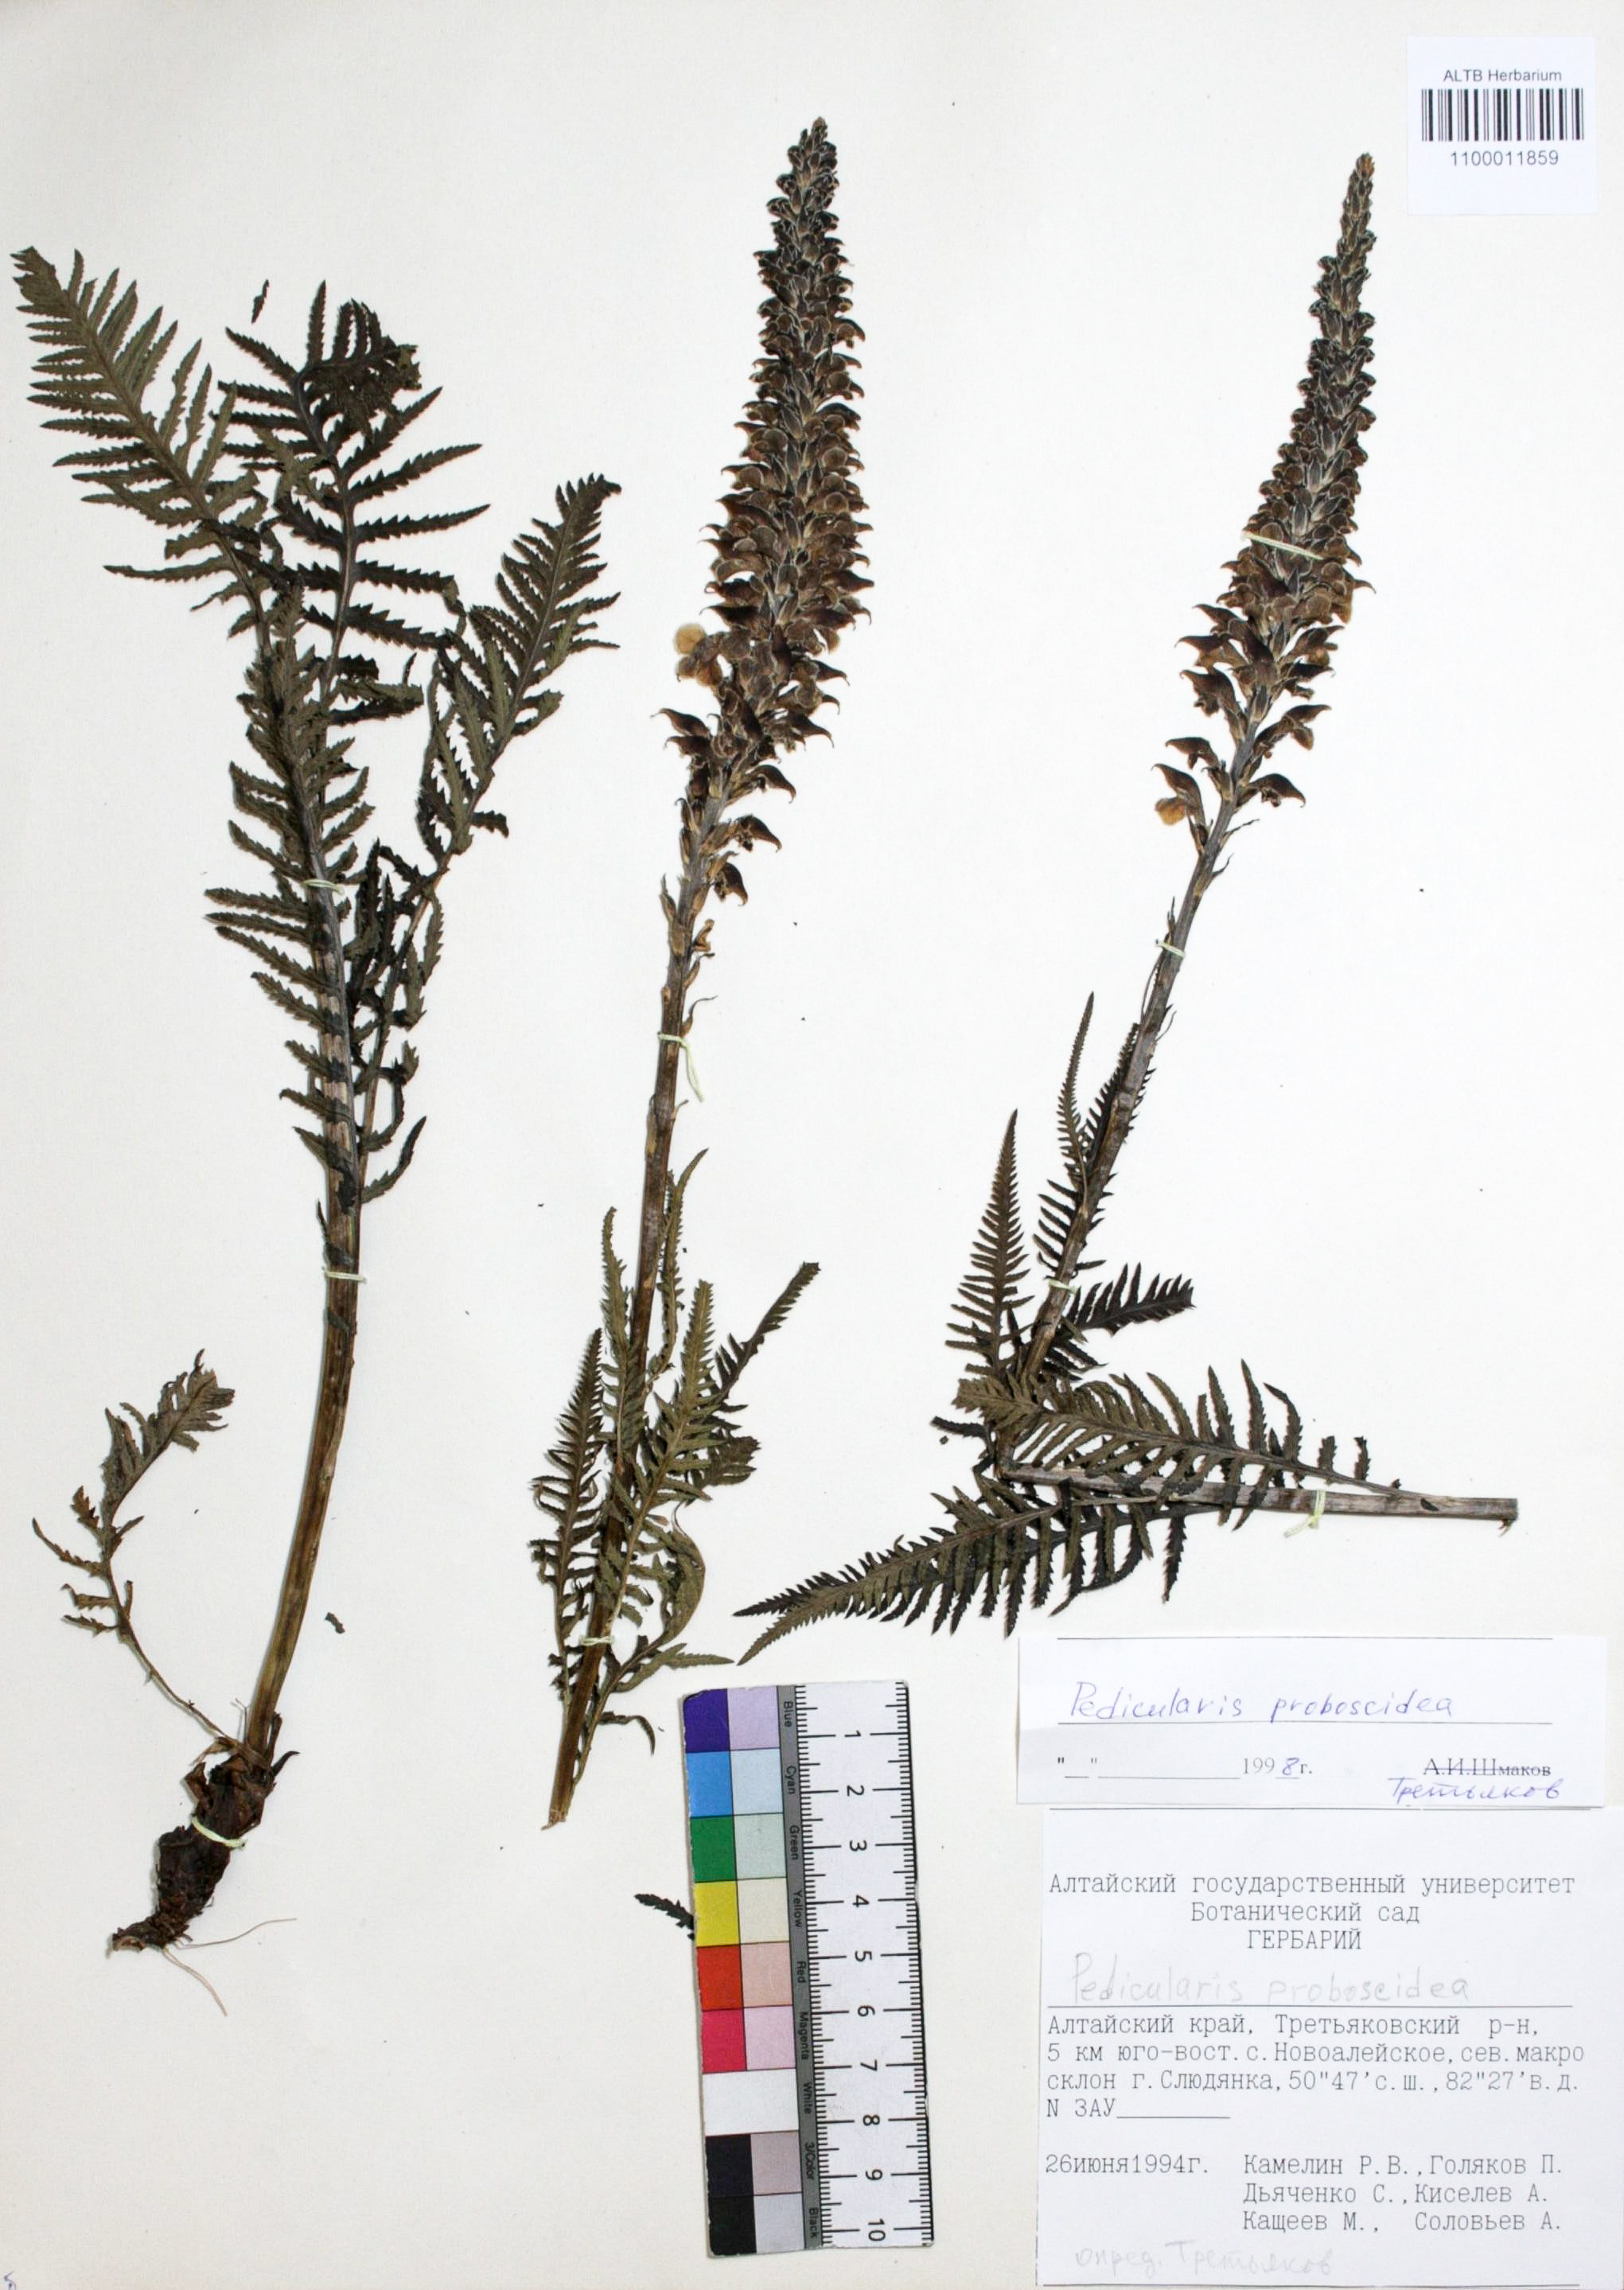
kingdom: Plantae
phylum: Tracheophyta
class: Magnoliopsida
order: Lamiales
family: Orobanchaceae
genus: Pedicularis
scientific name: Pedicularis proboscidea
